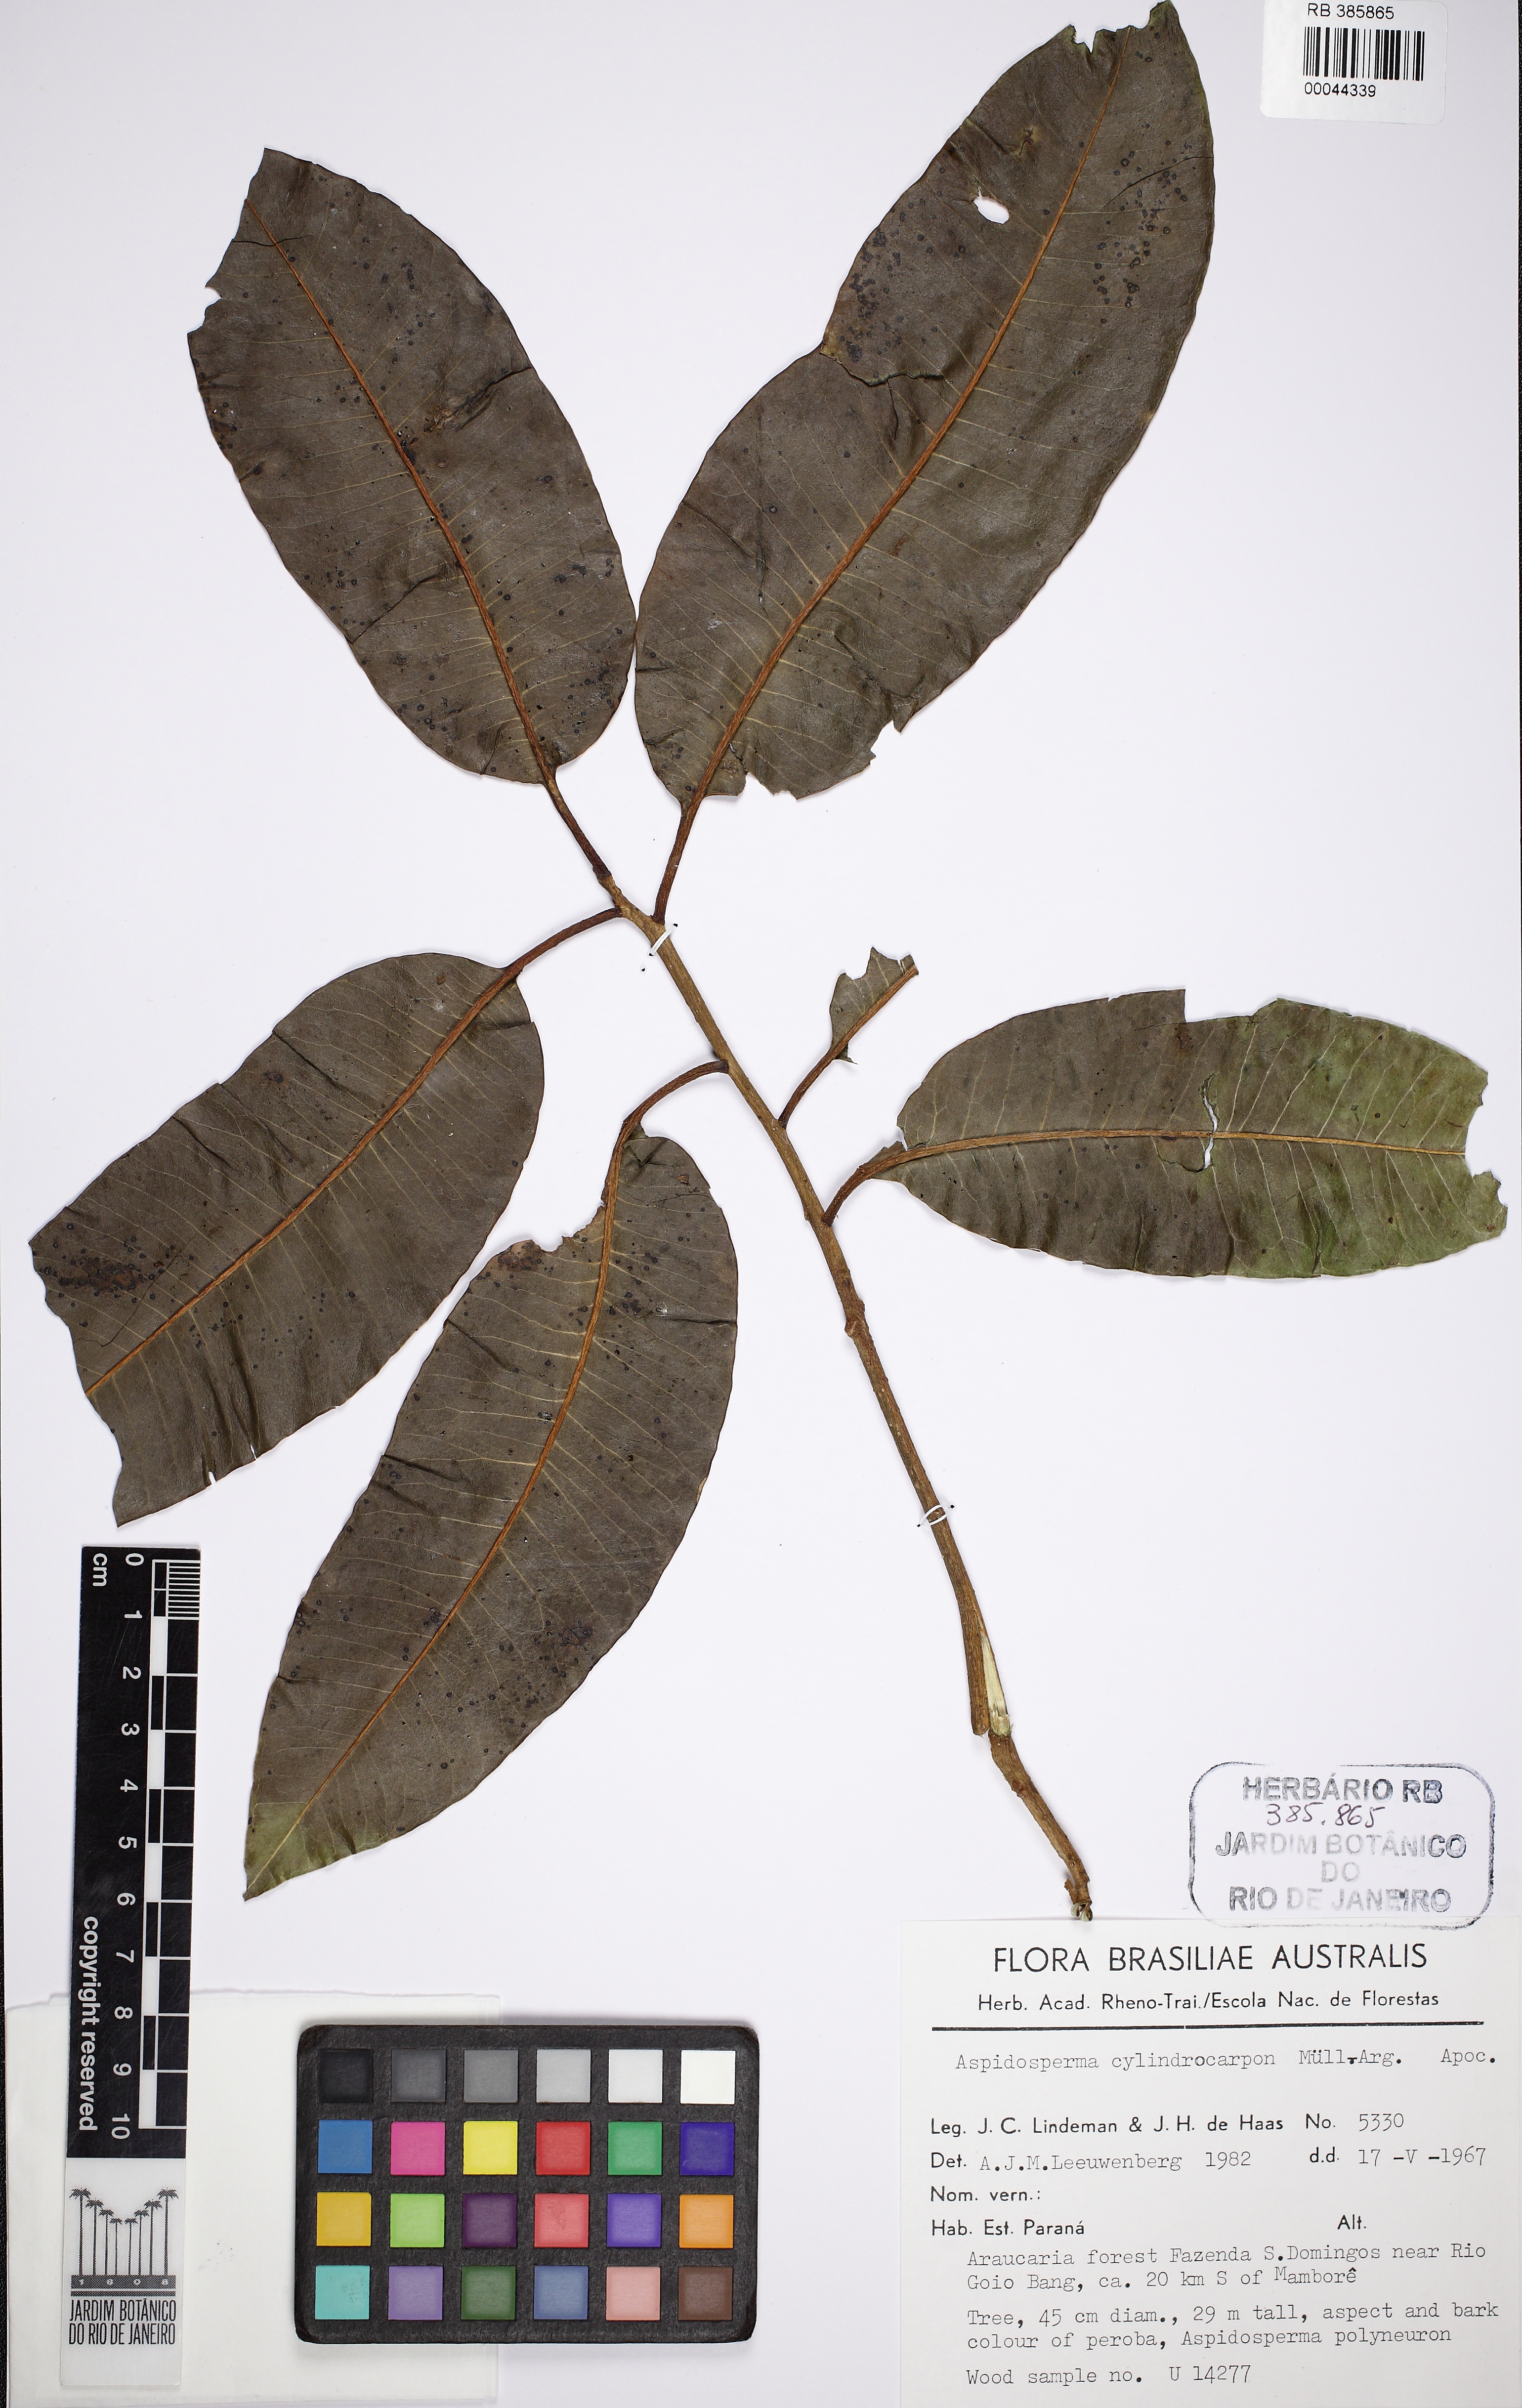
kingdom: Plantae
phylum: Tracheophyta
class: Magnoliopsida
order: Gentianales
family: Apocynaceae
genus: Aspidosperma
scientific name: Aspidosperma cylindrocarpon
